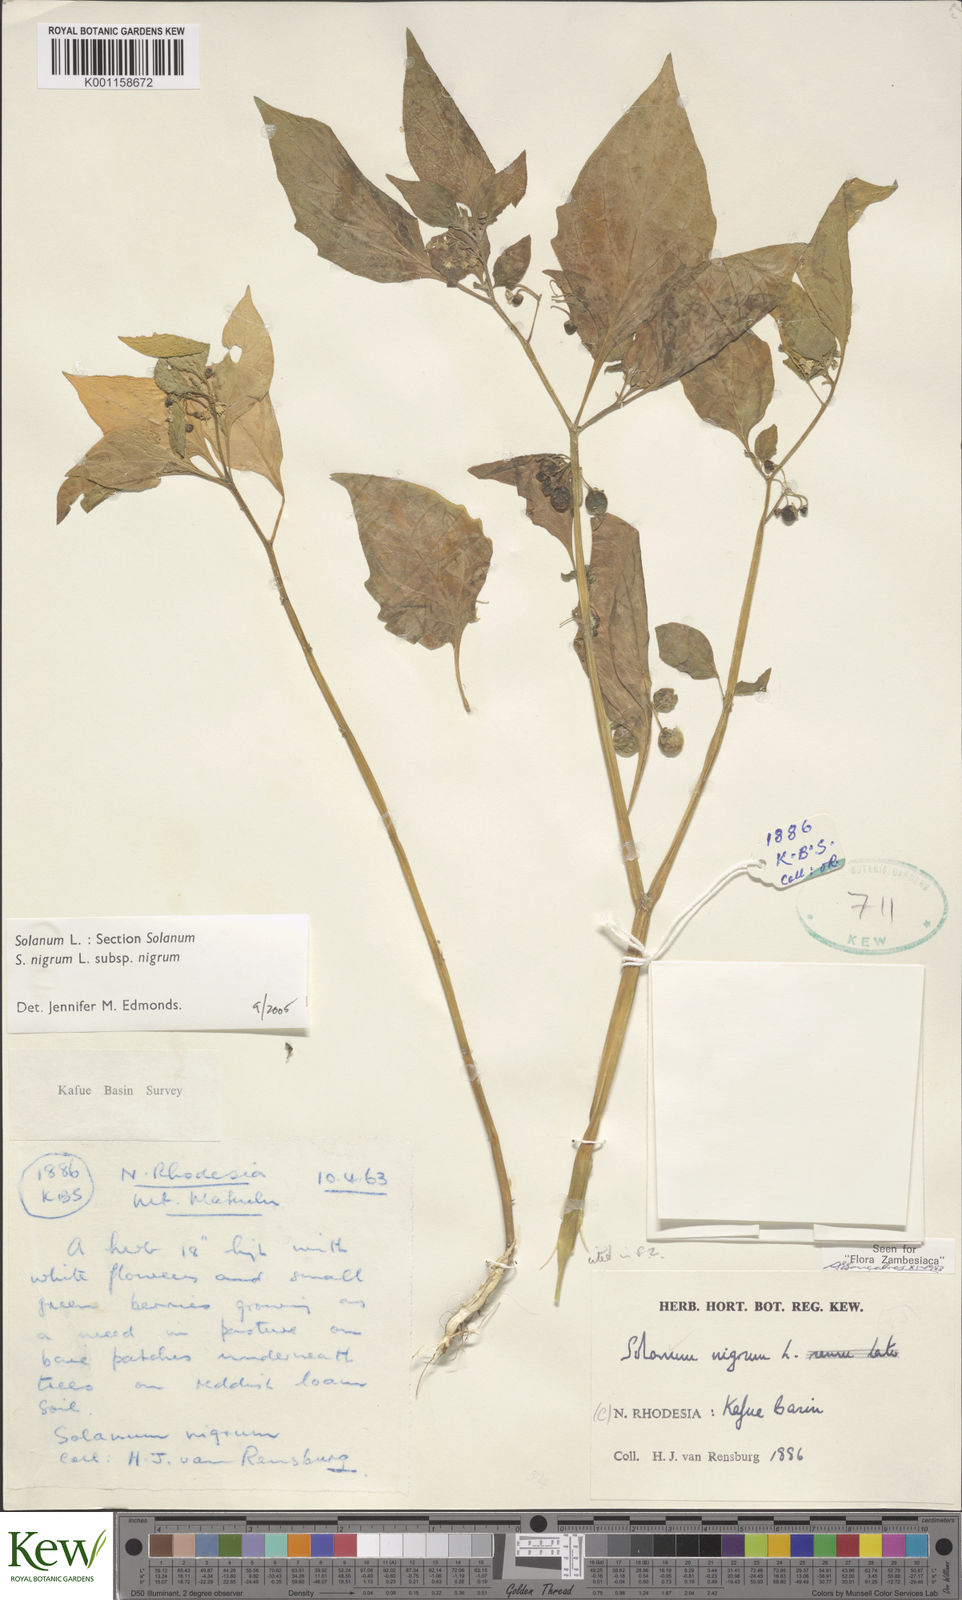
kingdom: Plantae
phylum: Tracheophyta
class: Magnoliopsida
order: Solanales
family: Solanaceae
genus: Solanum
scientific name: Solanum nigrum
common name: Black nightshade
